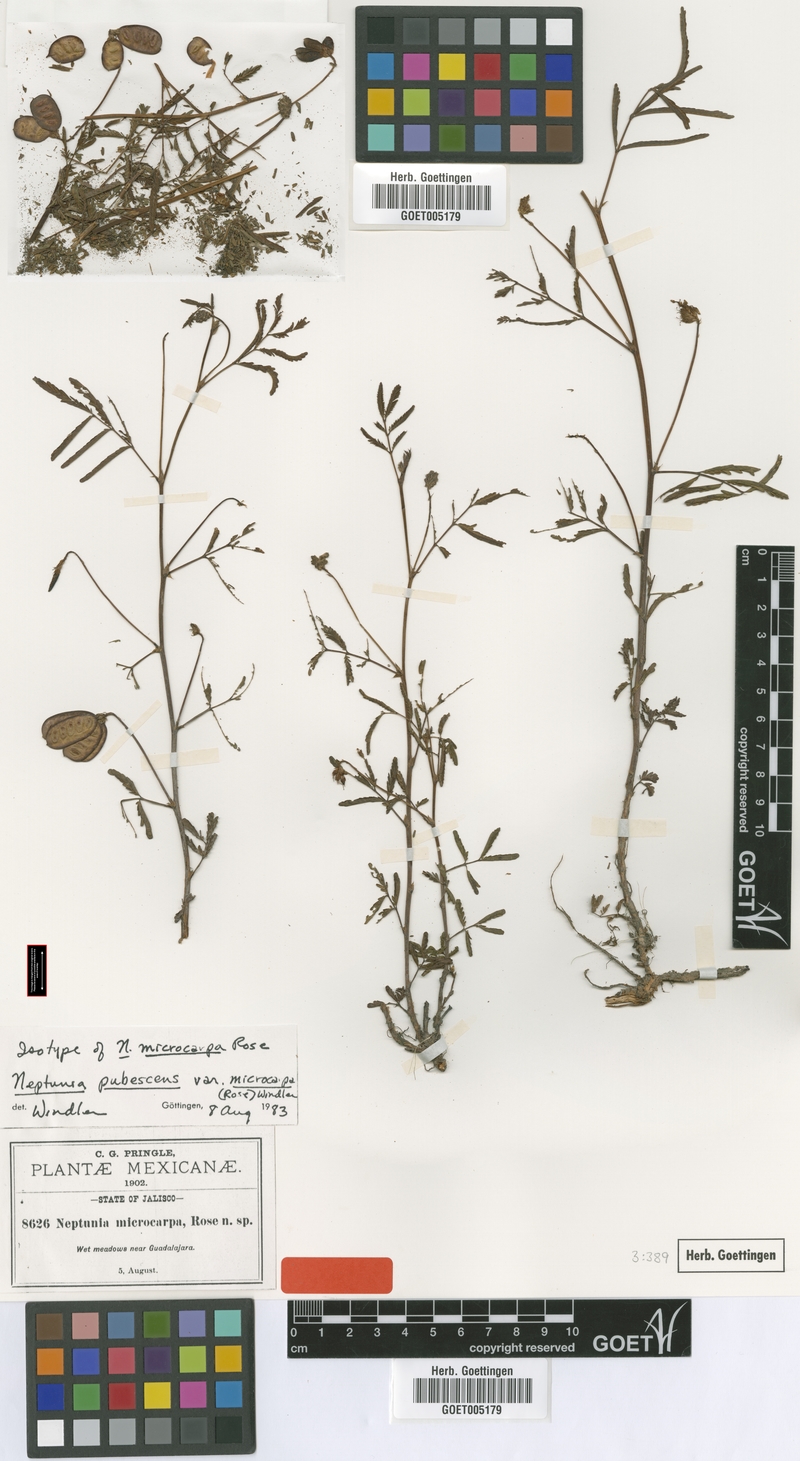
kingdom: Plantae
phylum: Tracheophyta
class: Magnoliopsida
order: Fabales
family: Fabaceae
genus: Neptunia
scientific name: Neptunia pubescens
